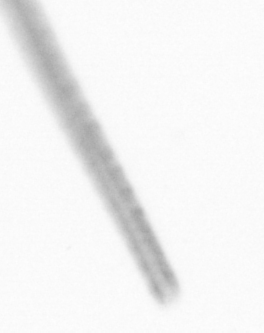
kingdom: Chromista
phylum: Ochrophyta
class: Bacillariophyceae
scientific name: Bacillariophyceae
